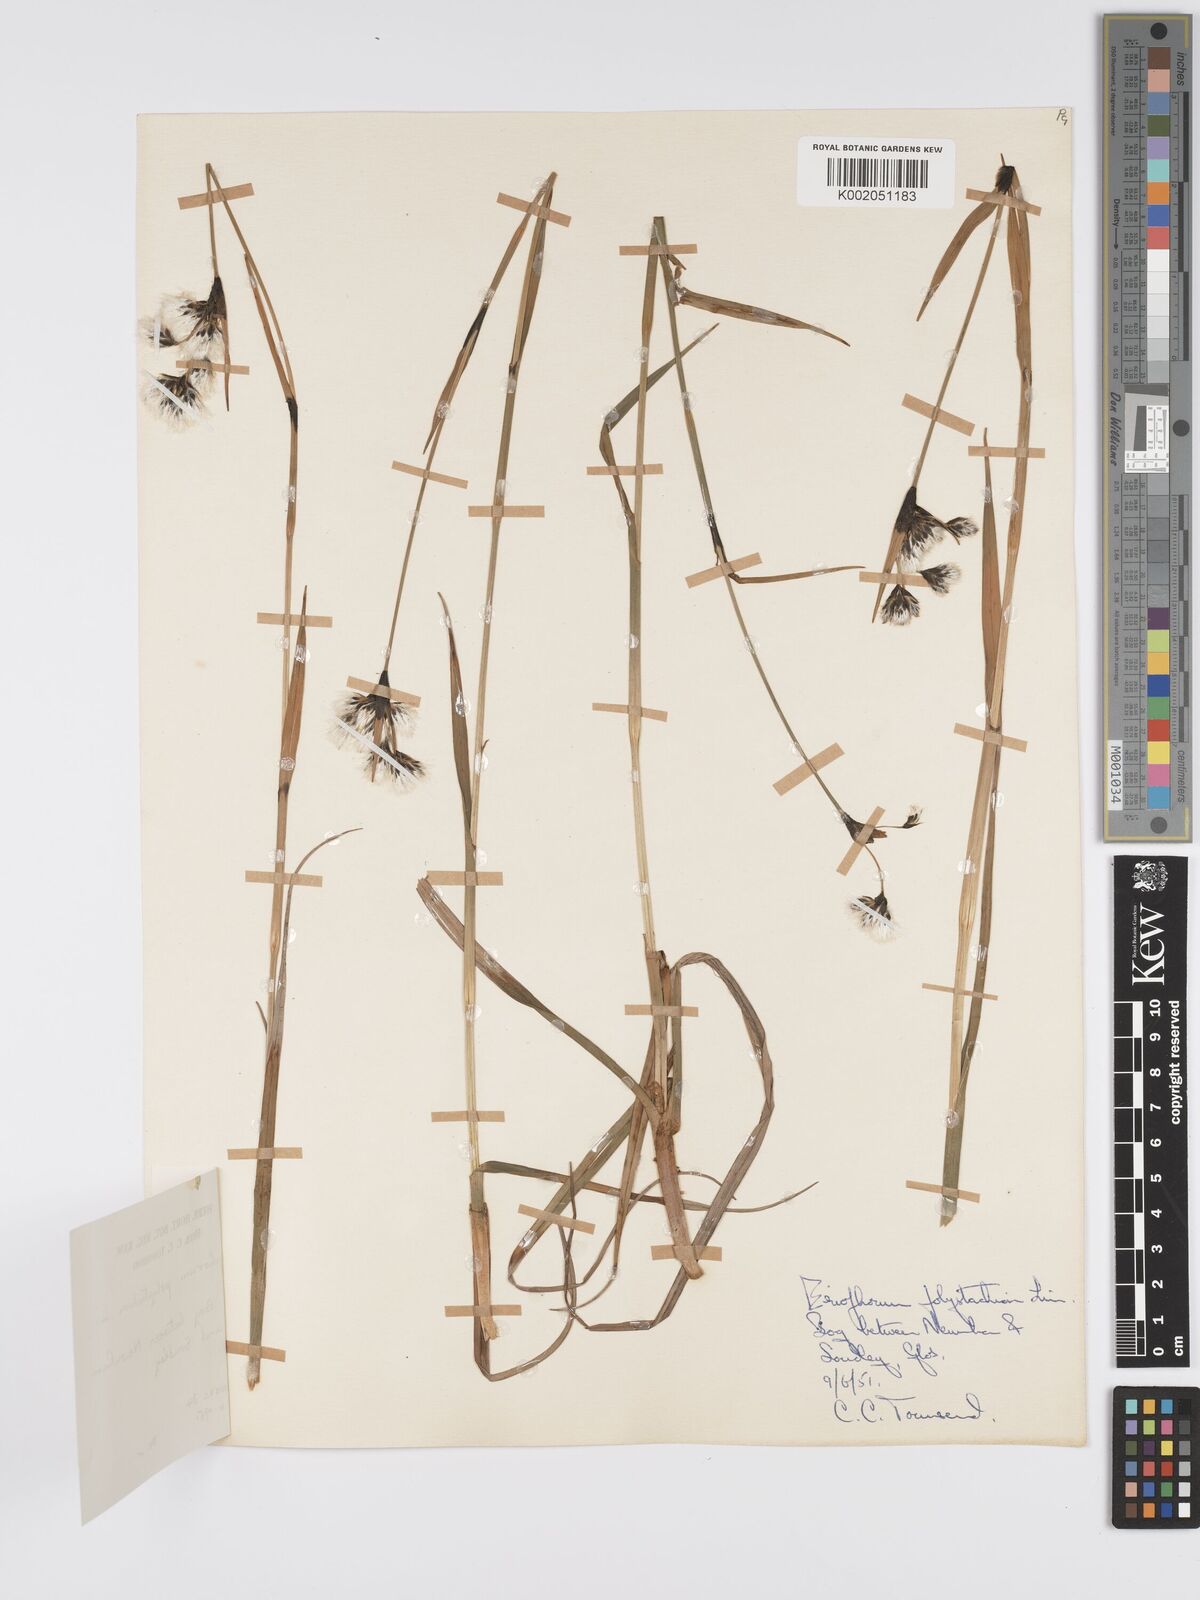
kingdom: Plantae
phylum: Tracheophyta
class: Liliopsida
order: Poales
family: Cyperaceae
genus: Eriophorum
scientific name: Eriophorum latifolium
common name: Broad-leaved cottongrass
